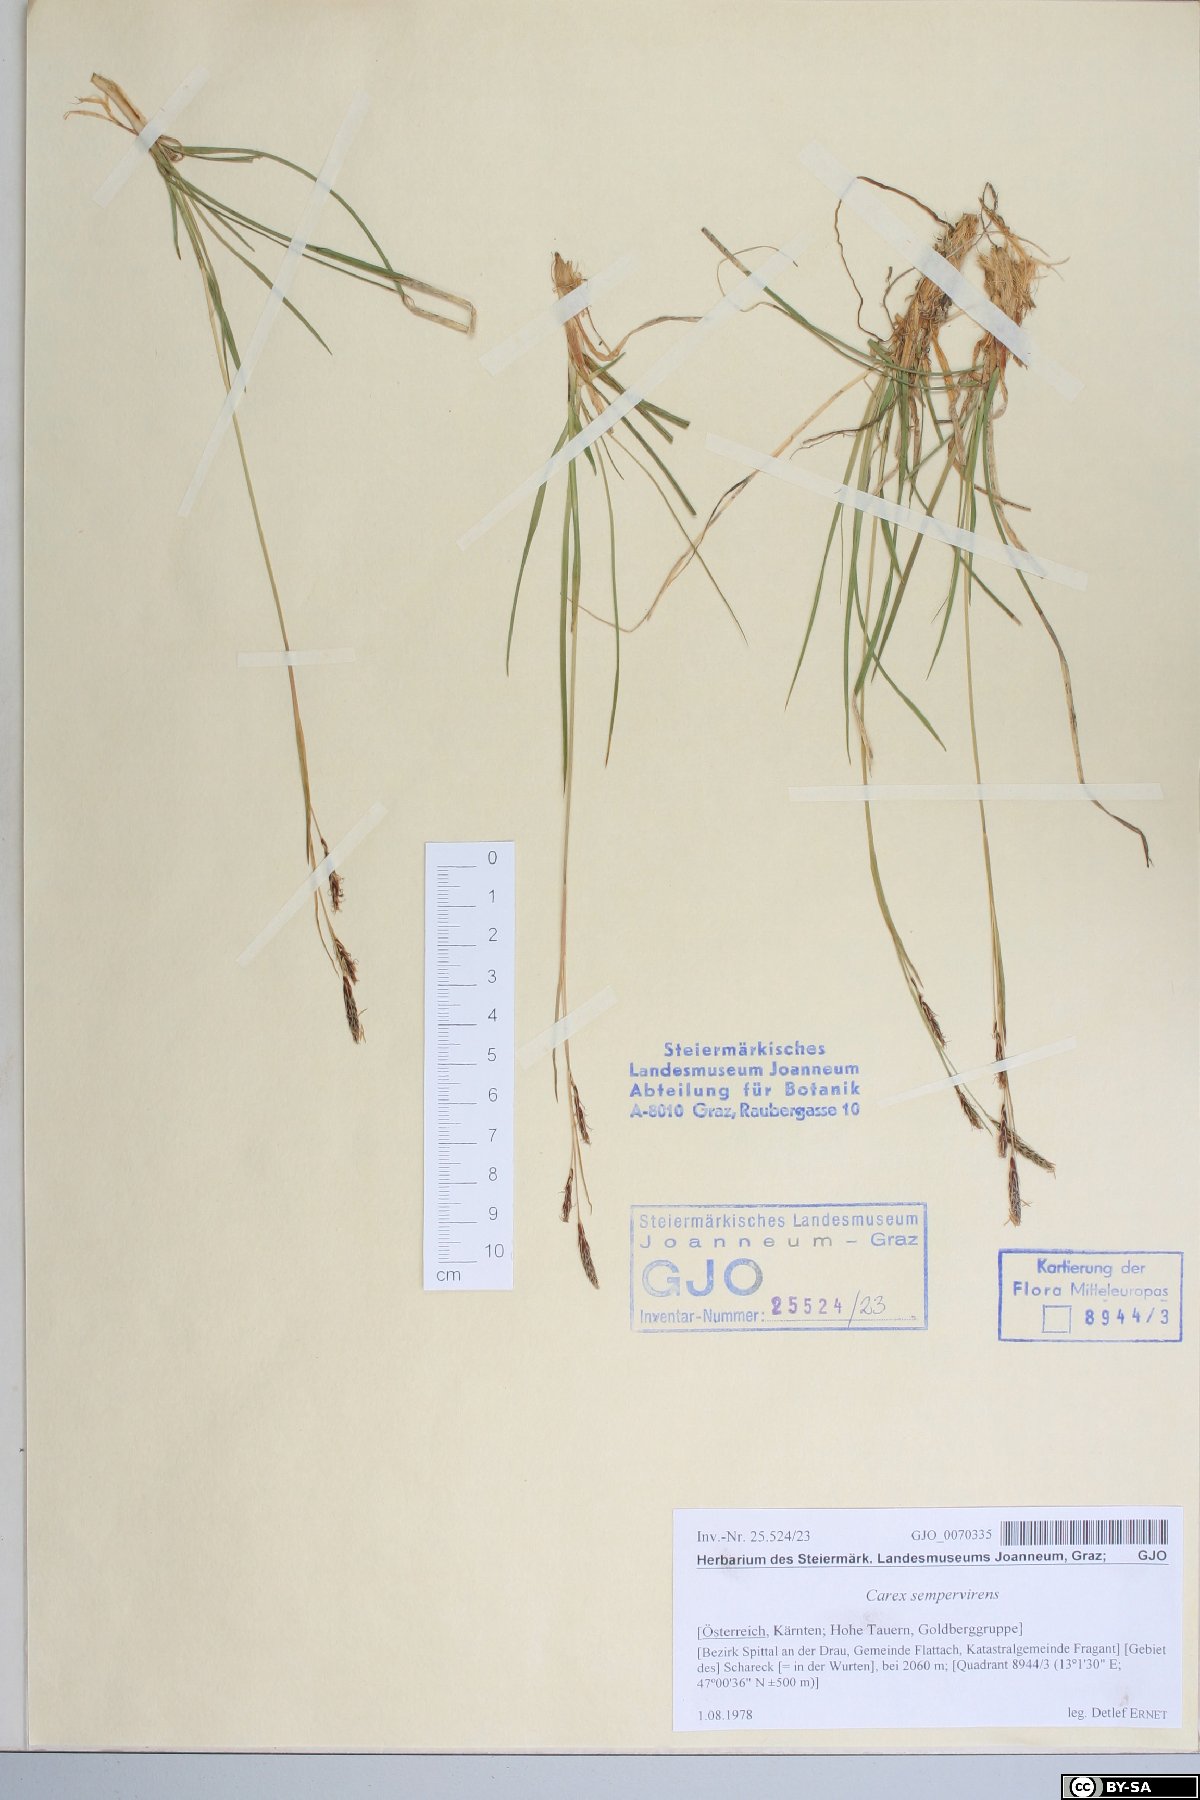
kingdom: Plantae
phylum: Tracheophyta
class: Liliopsida
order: Poales
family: Cyperaceae
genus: Carex
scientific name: Carex sempervirens
